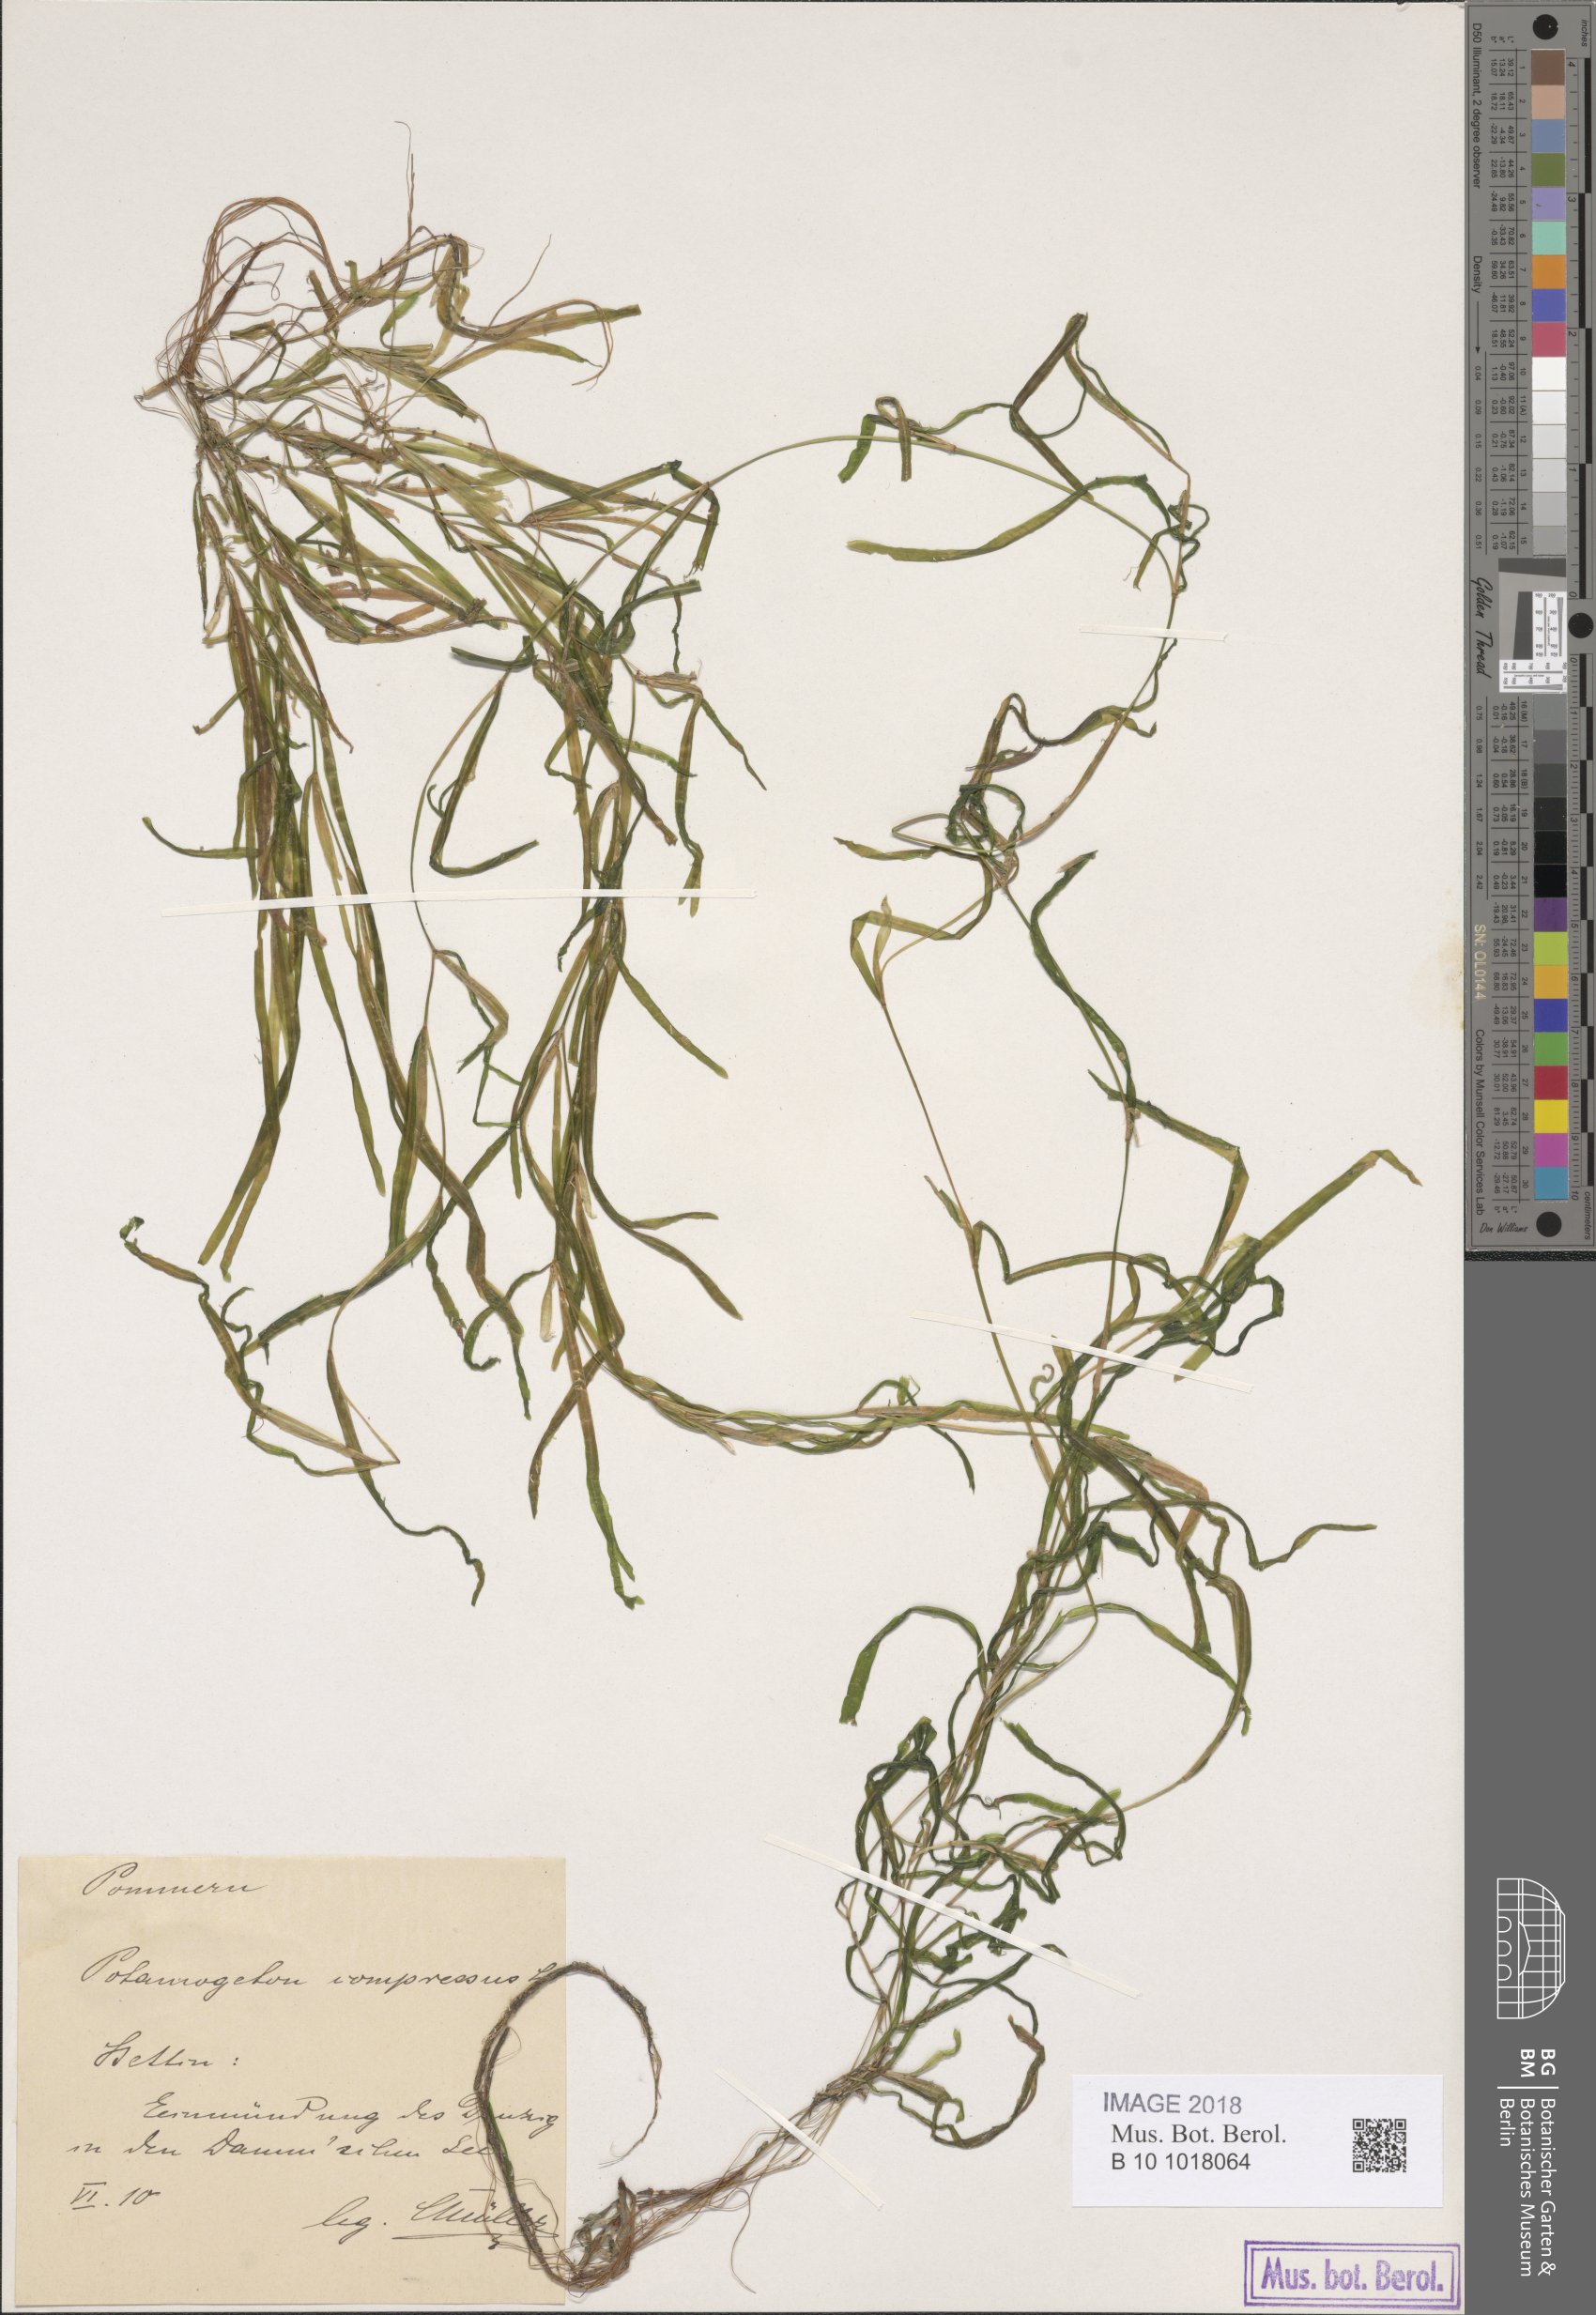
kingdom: Plantae
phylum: Tracheophyta
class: Liliopsida
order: Alismatales
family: Potamogetonaceae
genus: Potamogeton
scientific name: Potamogeton obtusifolius
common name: Blunt-leaved pondweed
